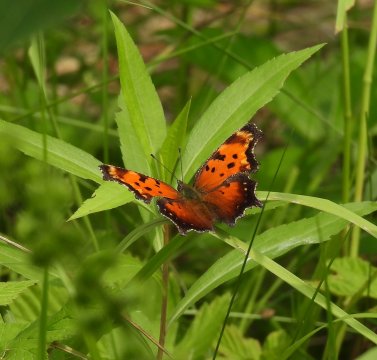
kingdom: Animalia
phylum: Arthropoda
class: Insecta
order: Lepidoptera
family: Nymphalidae
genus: Polygonia
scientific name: Polygonia progne
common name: Gray Comma
